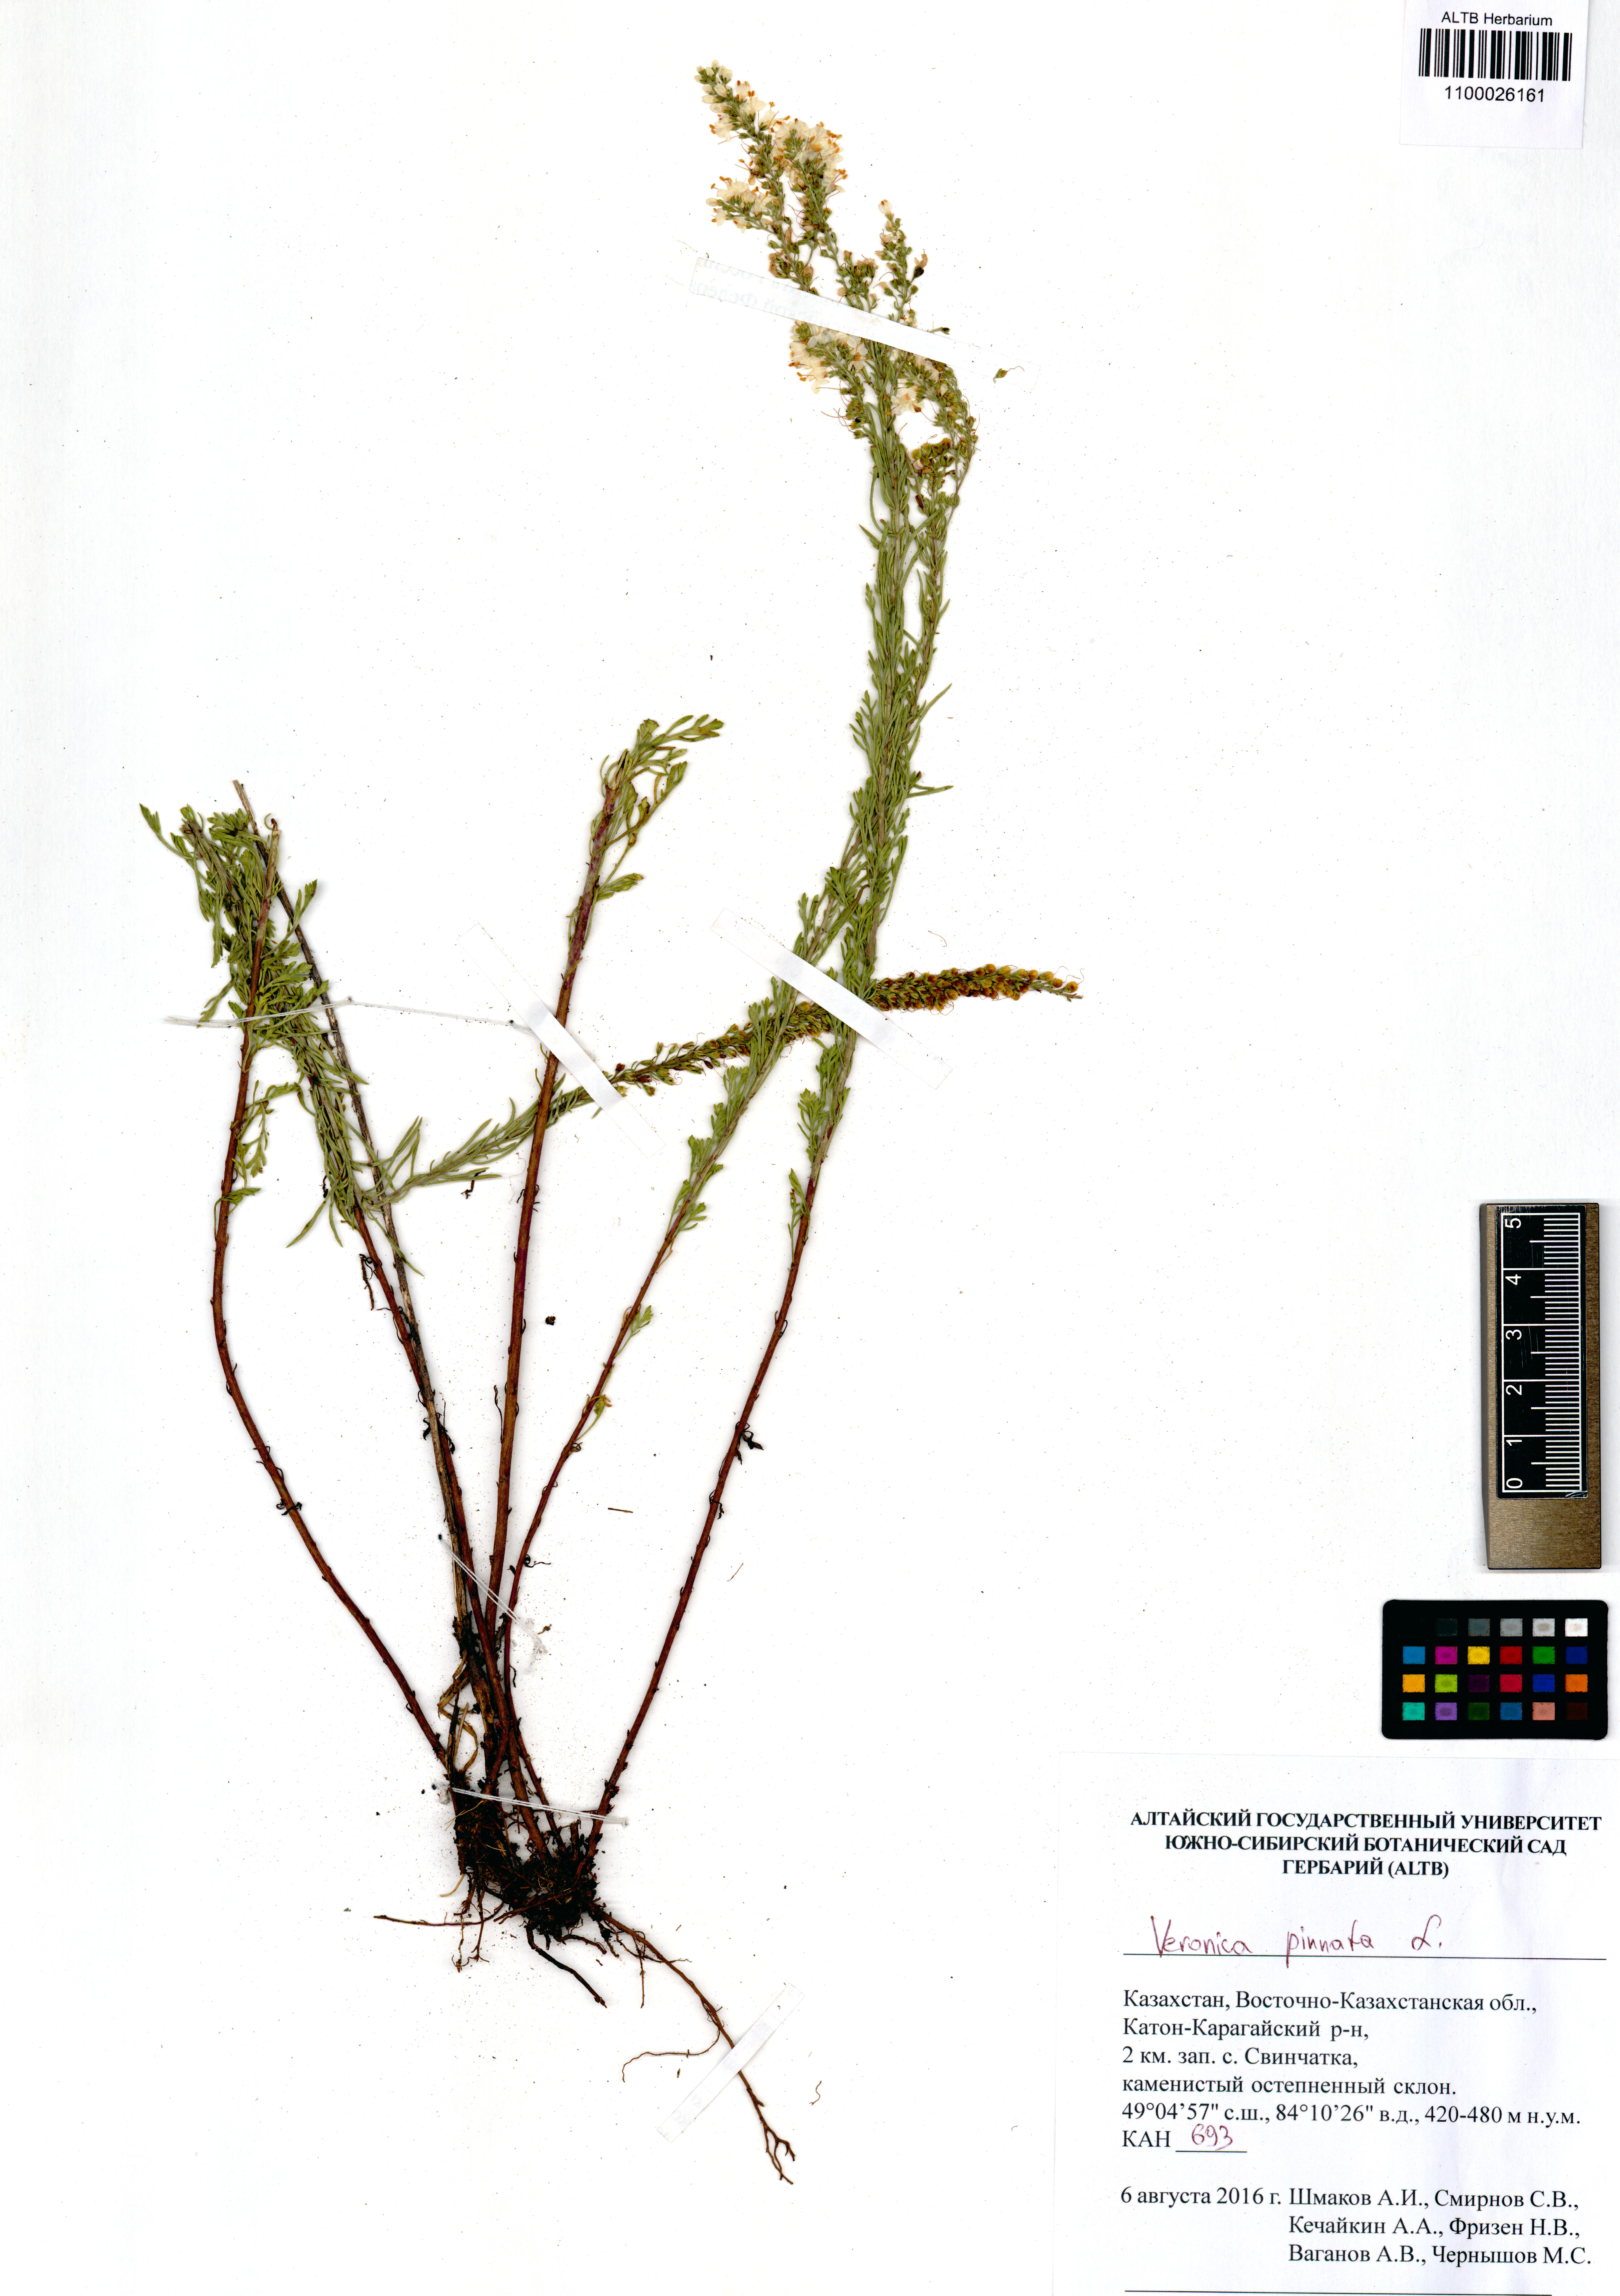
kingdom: Plantae
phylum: Tracheophyta
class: Magnoliopsida
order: Lamiales
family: Plantaginaceae
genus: Veronica
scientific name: Veronica pinnata
